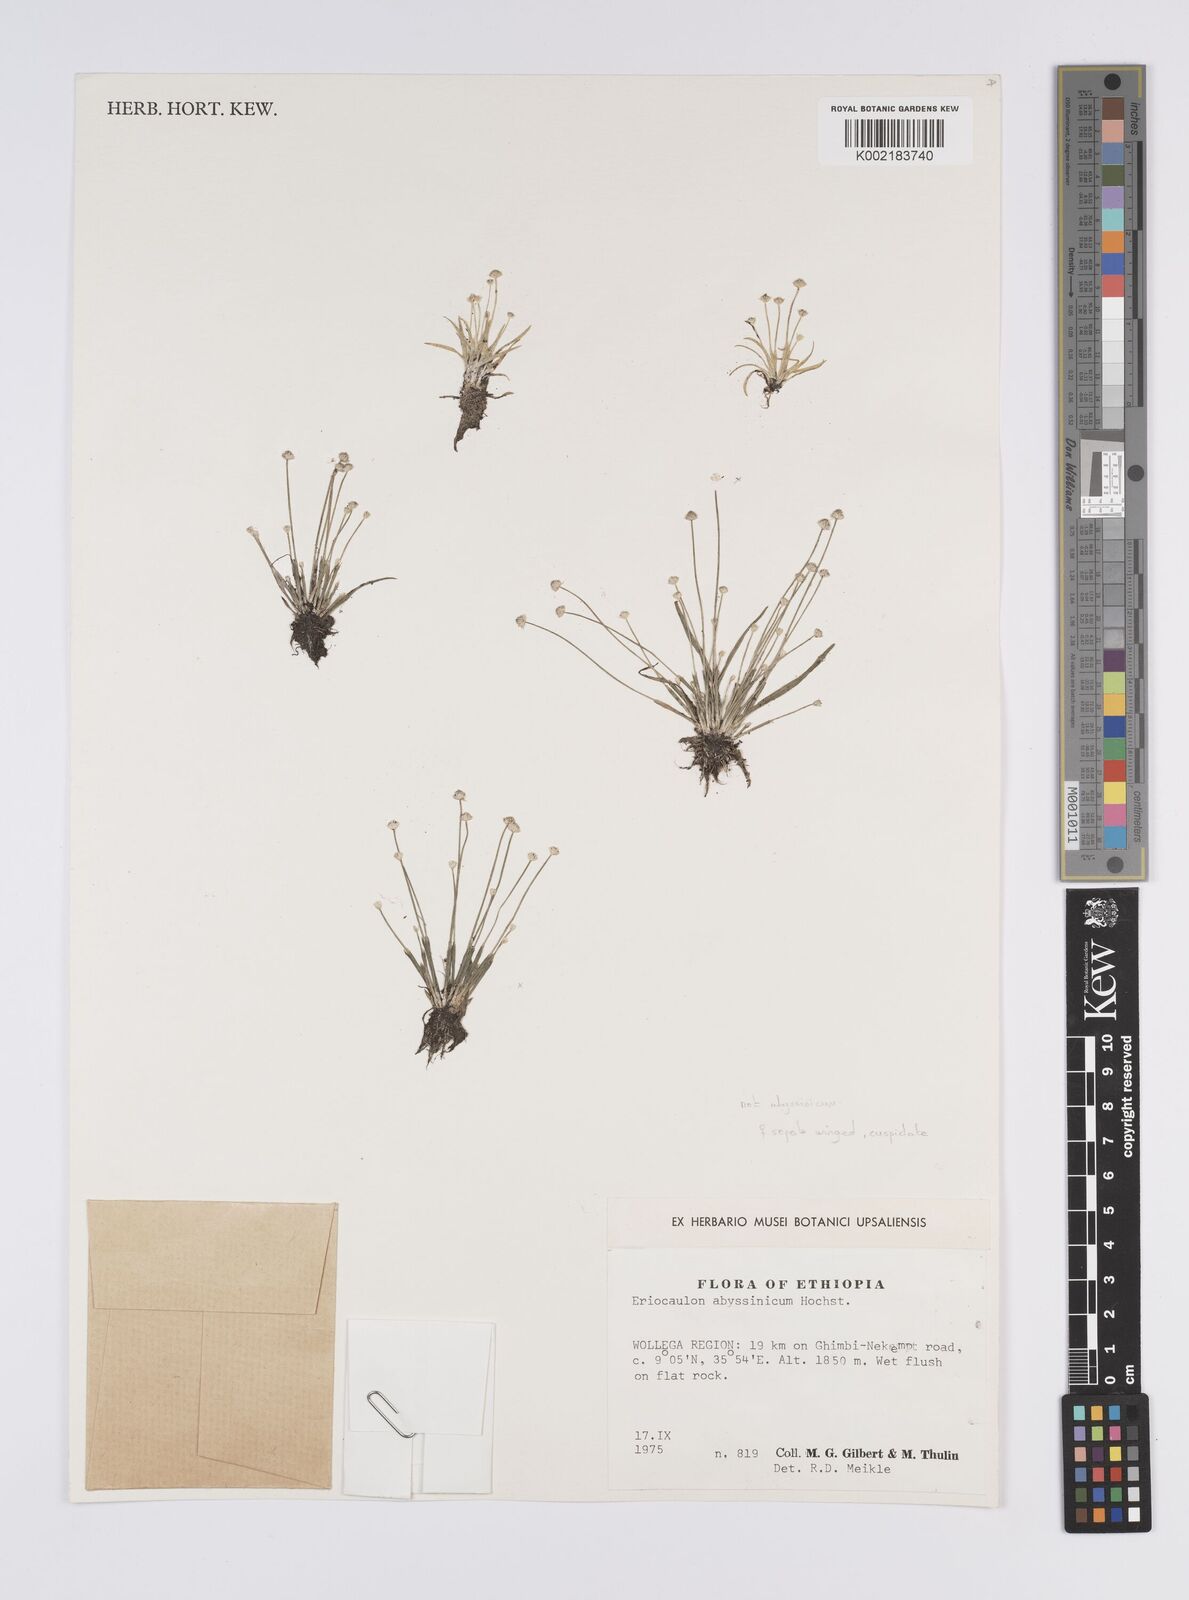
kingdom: Plantae
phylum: Tracheophyta
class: Liliopsida
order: Poales
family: Eriocaulaceae
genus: Eriocaulon
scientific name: Eriocaulon
